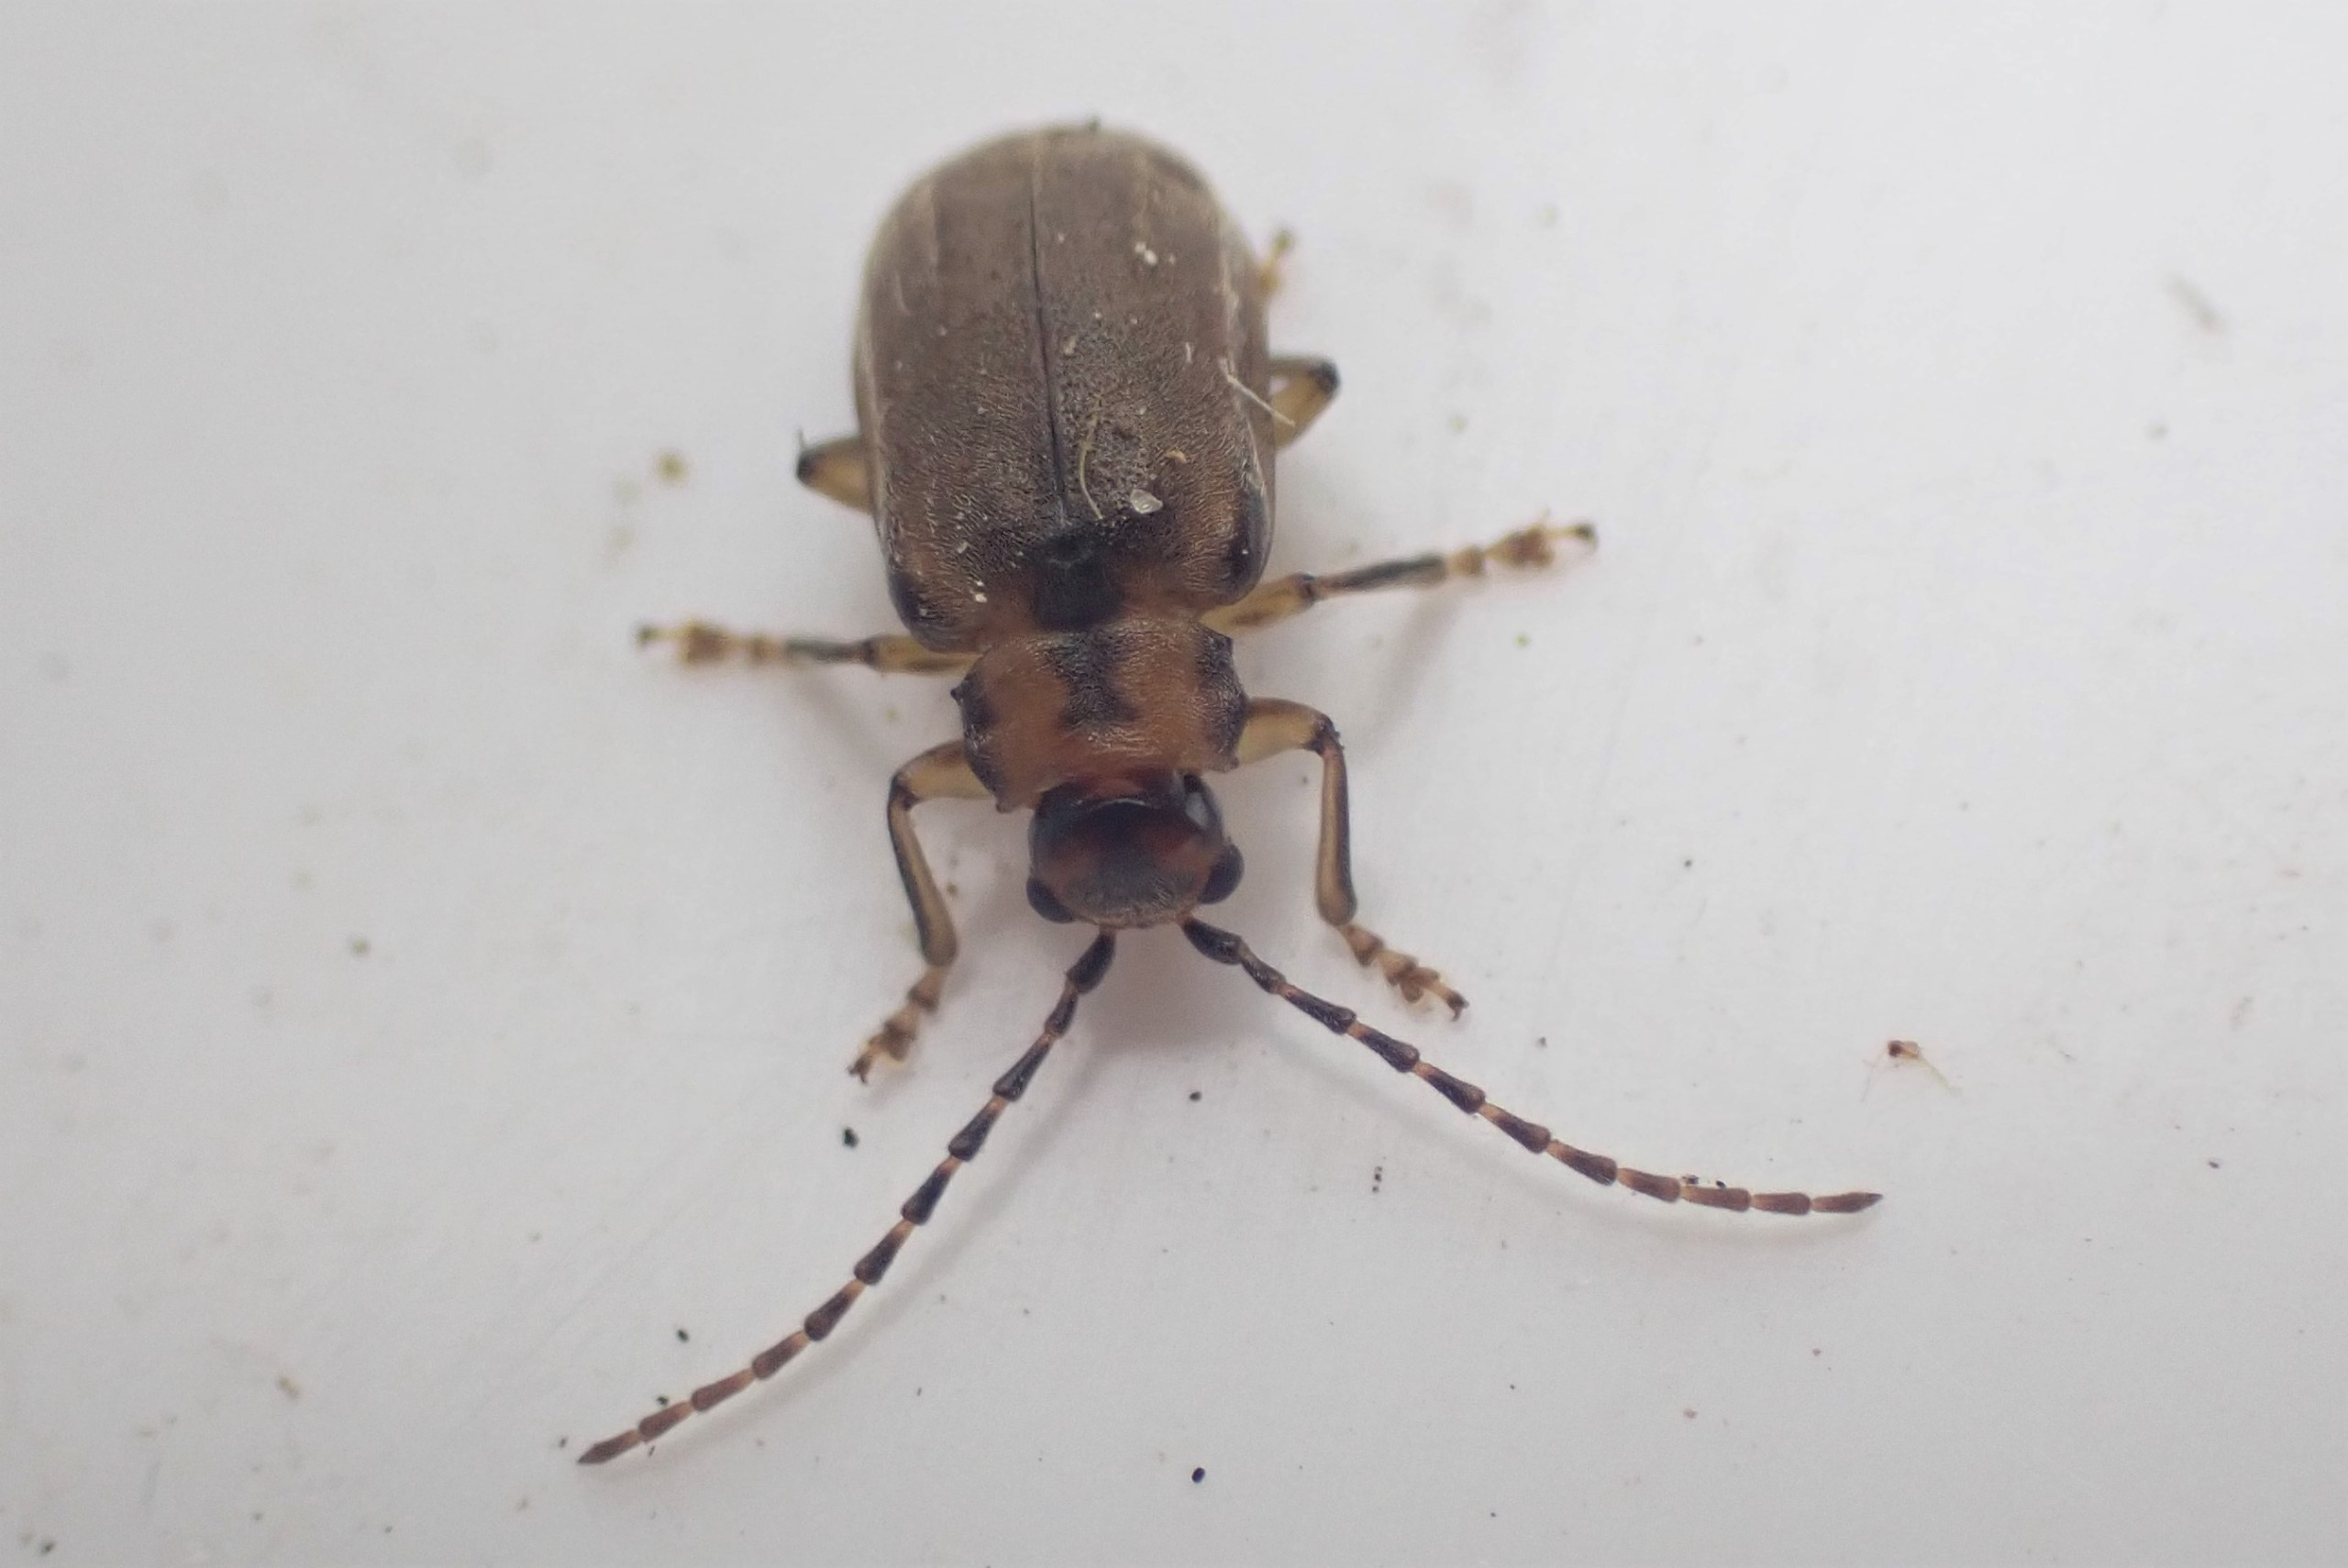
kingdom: Animalia
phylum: Arthropoda
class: Insecta
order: Coleoptera
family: Chrysomelidae
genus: Pyrrhalta
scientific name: Pyrrhalta viburni
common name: Kvalkvedbladbille
